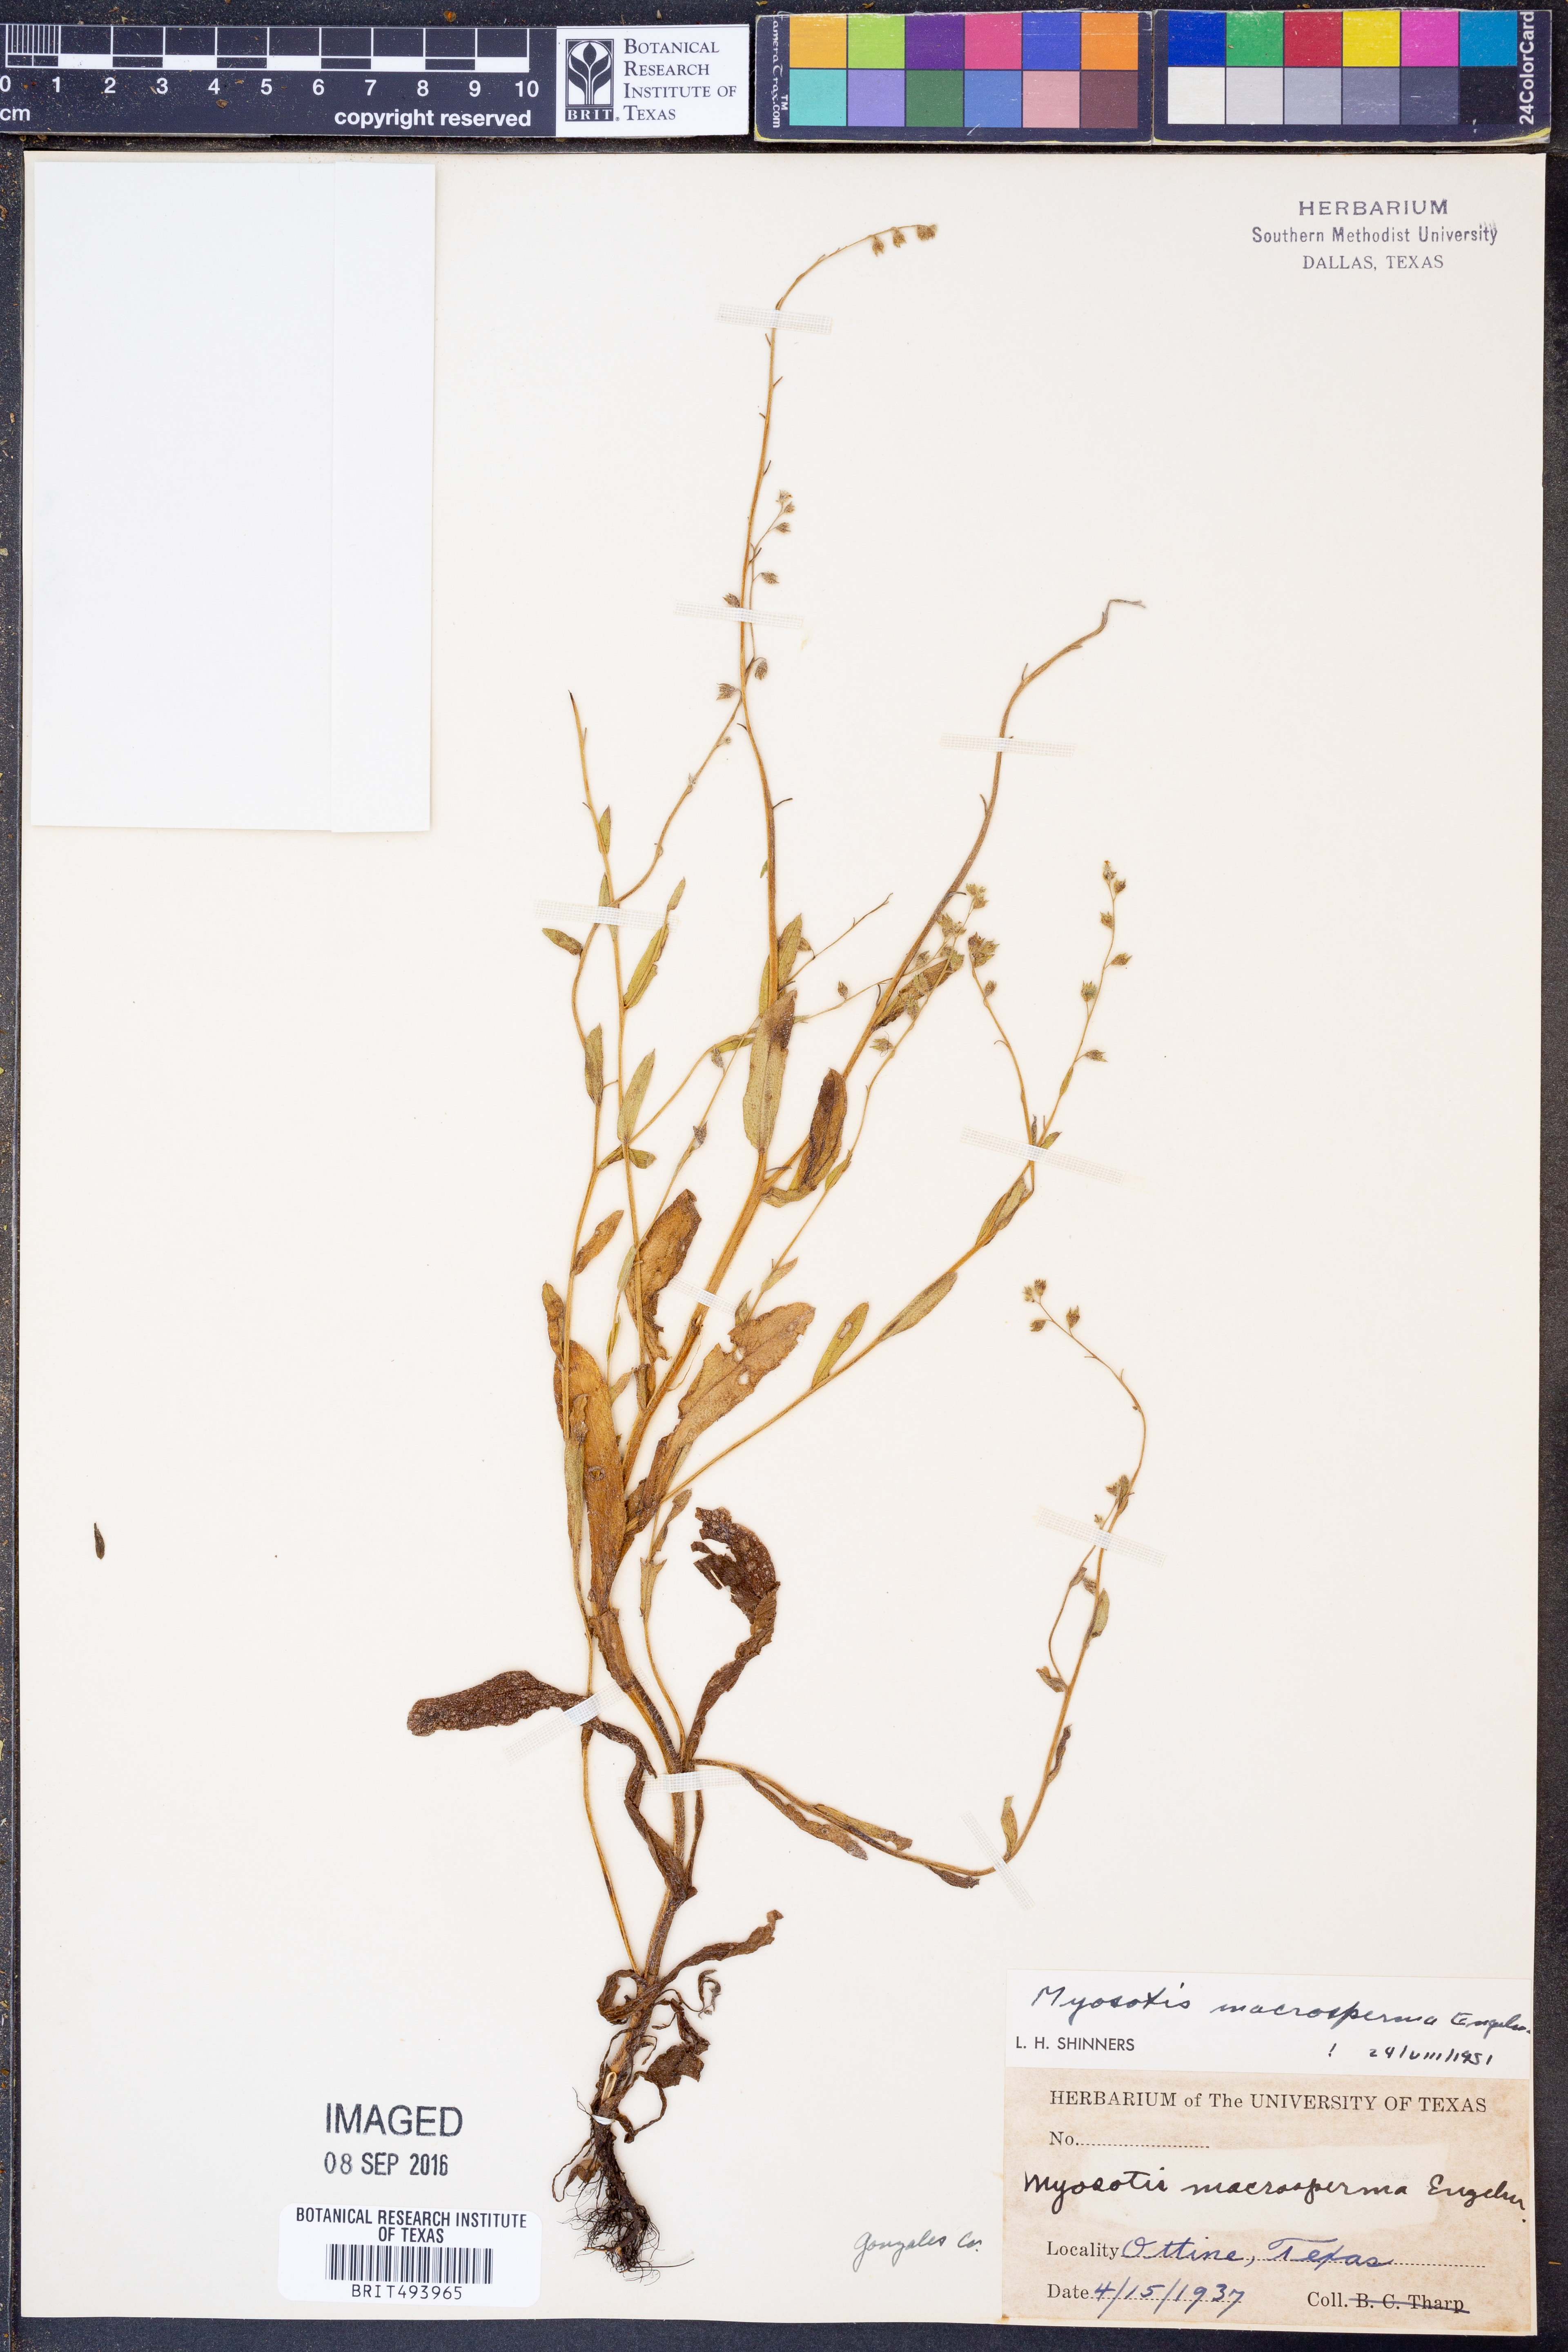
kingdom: Plantae
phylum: Tracheophyta
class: Magnoliopsida
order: Boraginales
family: Boraginaceae
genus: Myosotis
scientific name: Myosotis macrosperma
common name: Large-seed forget-me-not
